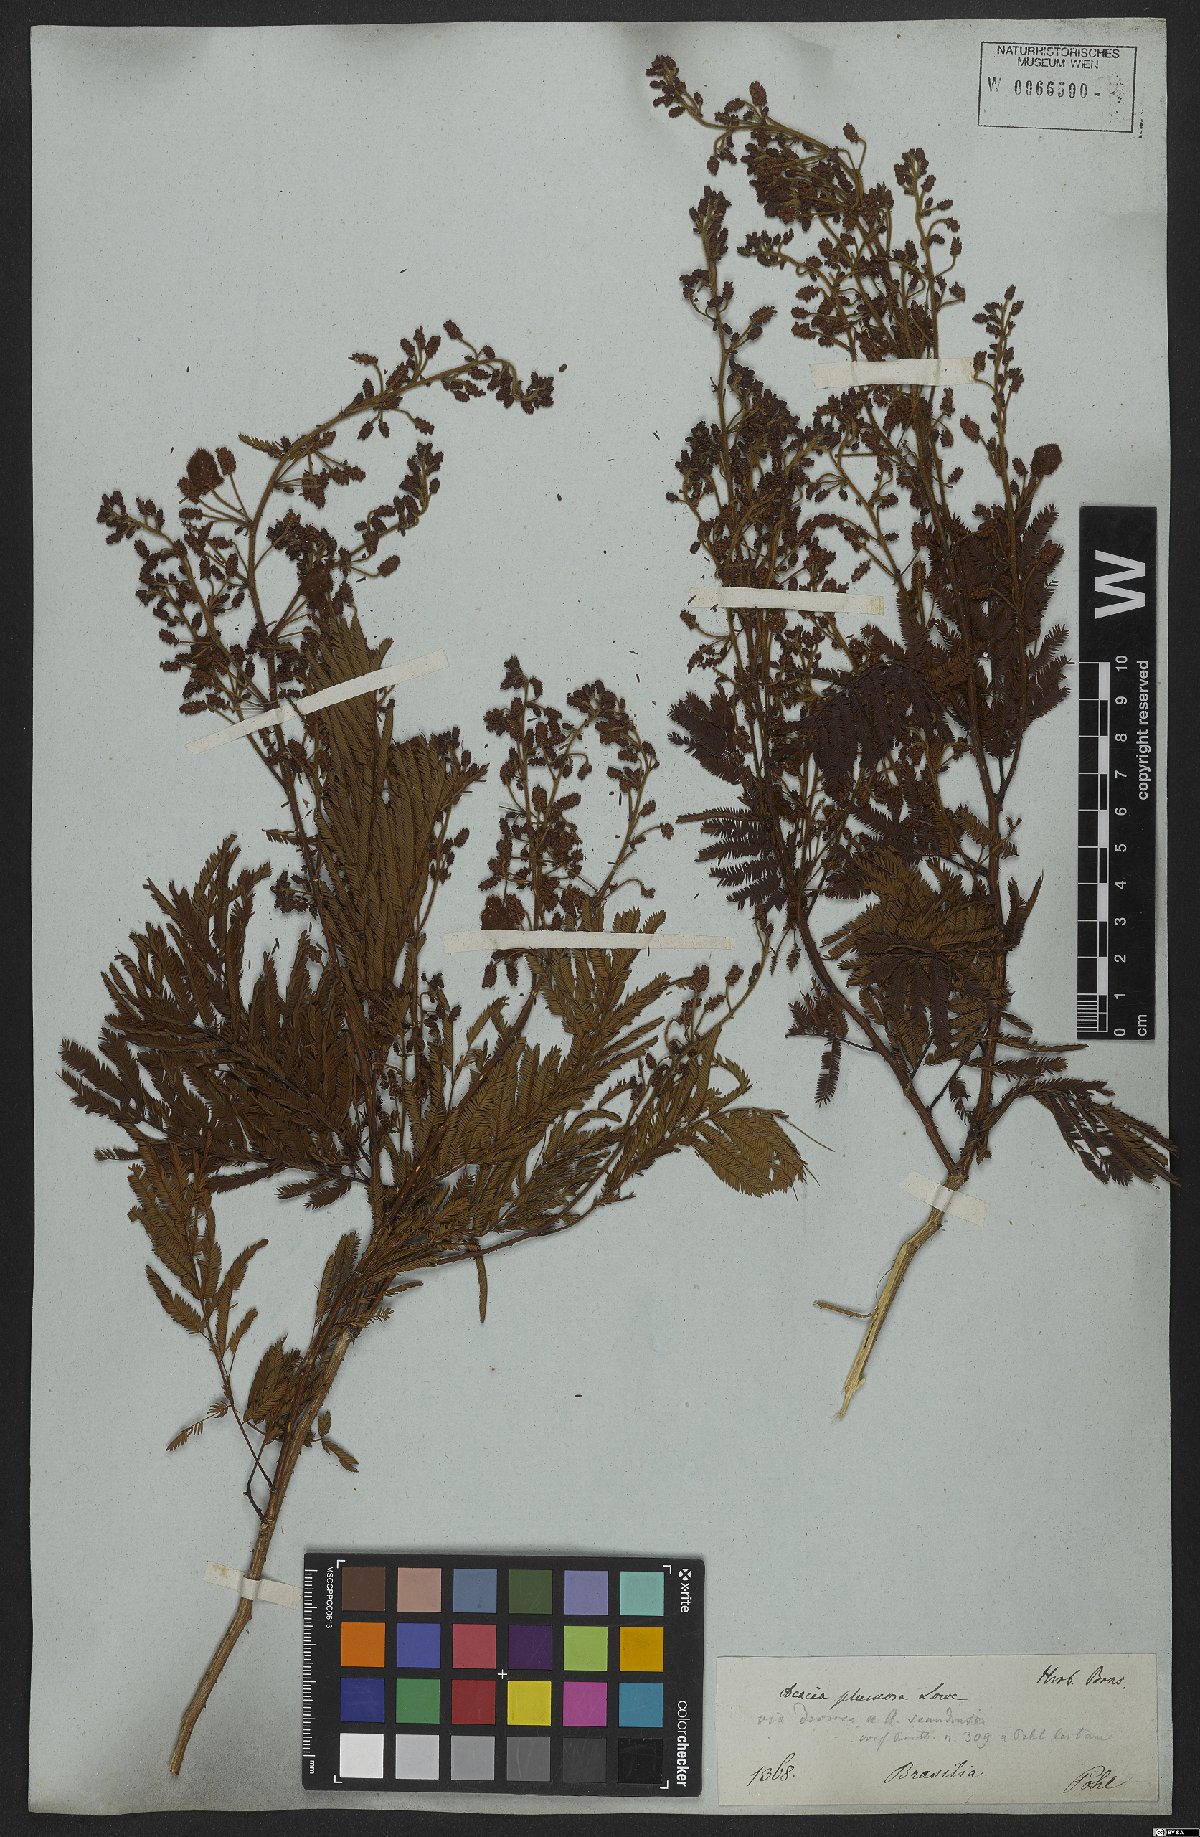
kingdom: Plantae
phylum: Tracheophyta
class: Magnoliopsida
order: Fabales
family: Fabaceae
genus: Senegalia
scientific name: Senegalia lowei
